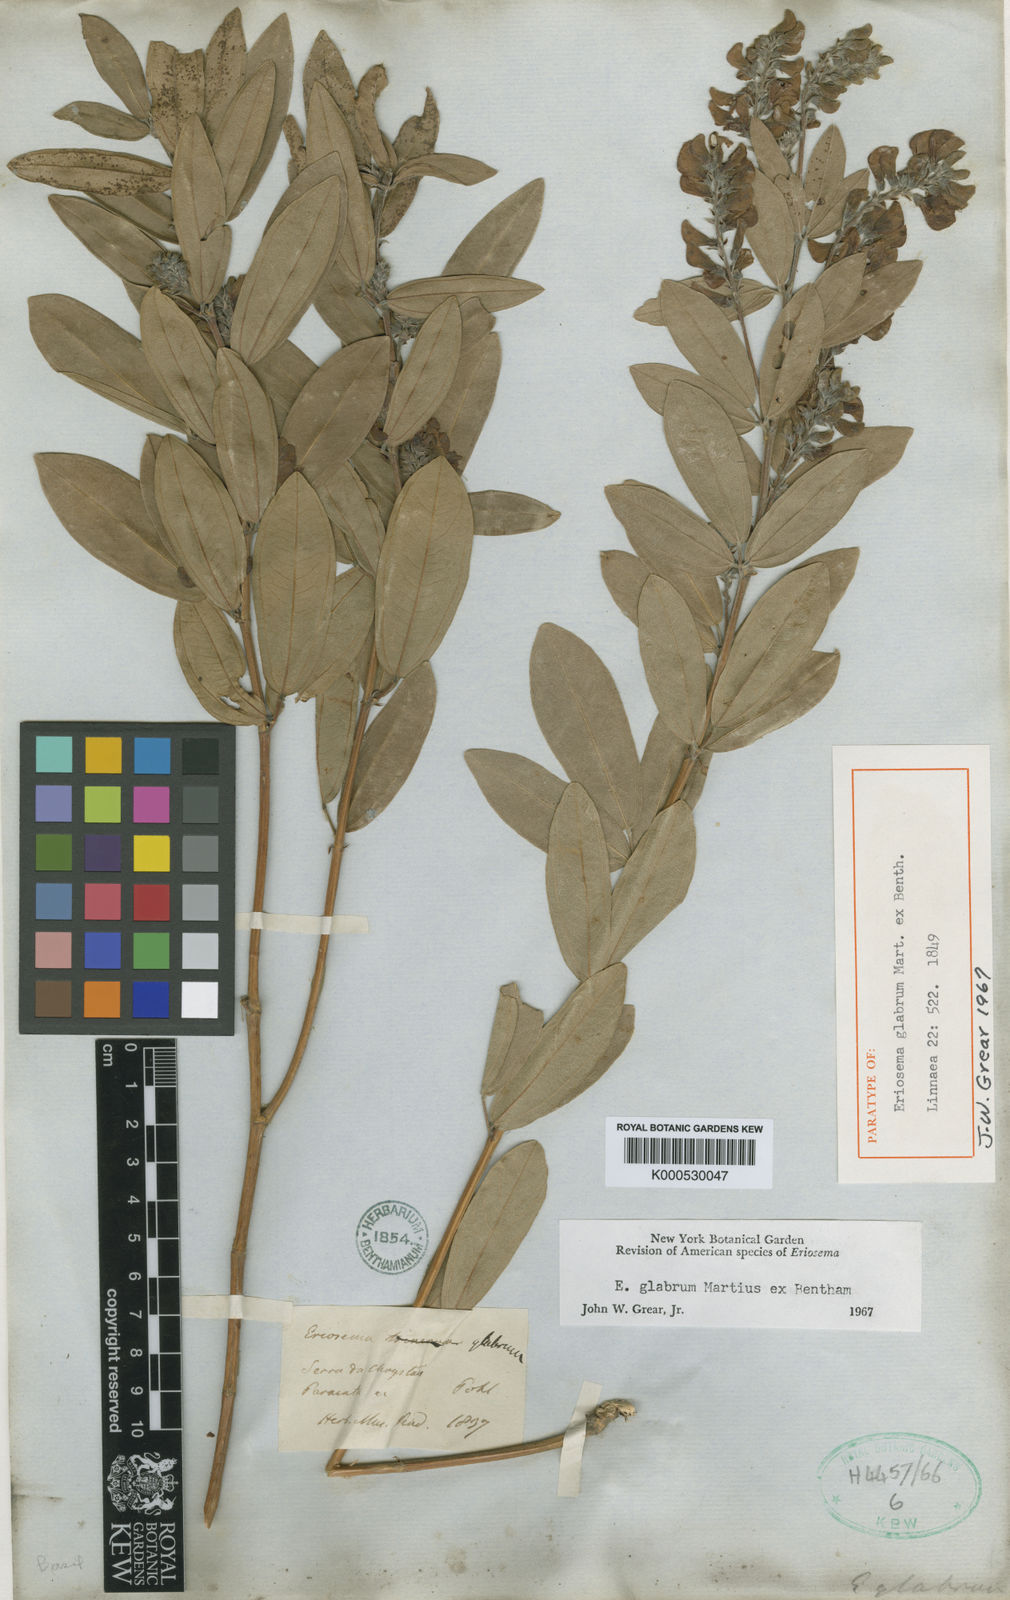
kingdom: Plantae
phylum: Tracheophyta
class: Magnoliopsida
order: Fabales
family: Fabaceae
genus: Eriosema
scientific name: Eriosema glabrum
